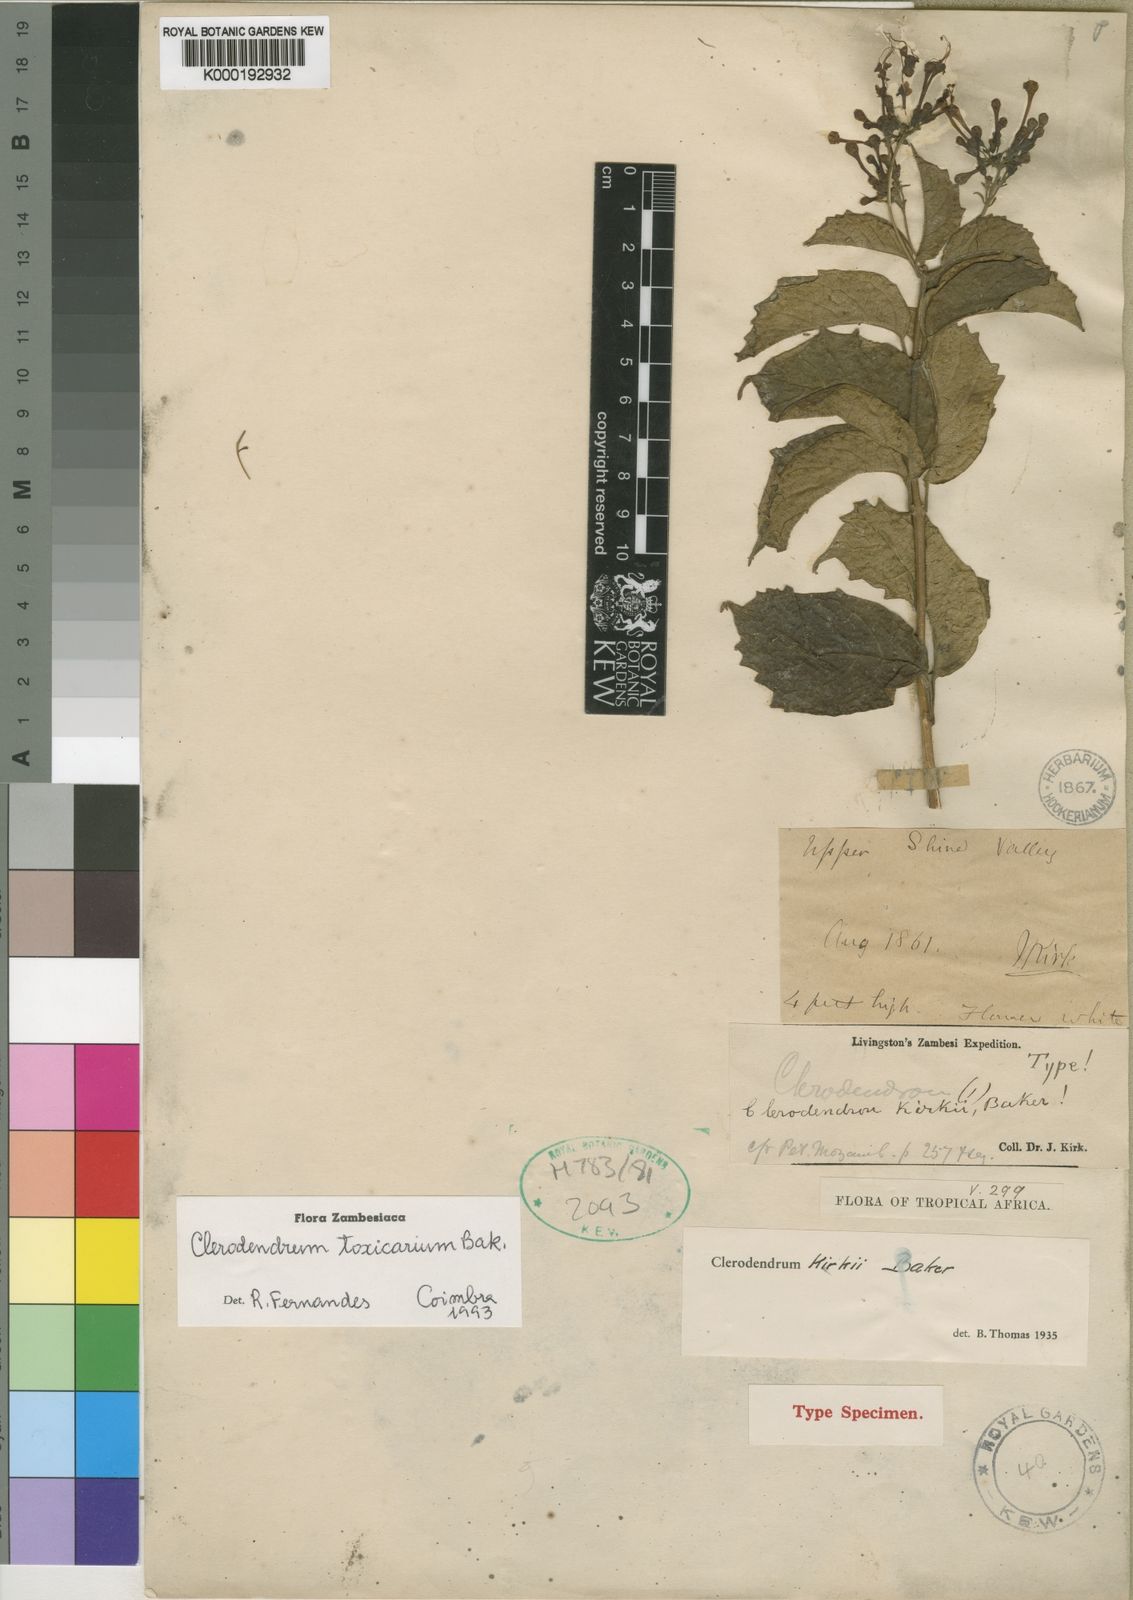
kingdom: Plantae
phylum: Tracheophyta
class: Magnoliopsida
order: Lamiales
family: Lamiaceae
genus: Clerodendrum
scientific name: Clerodendrum toxicarium
